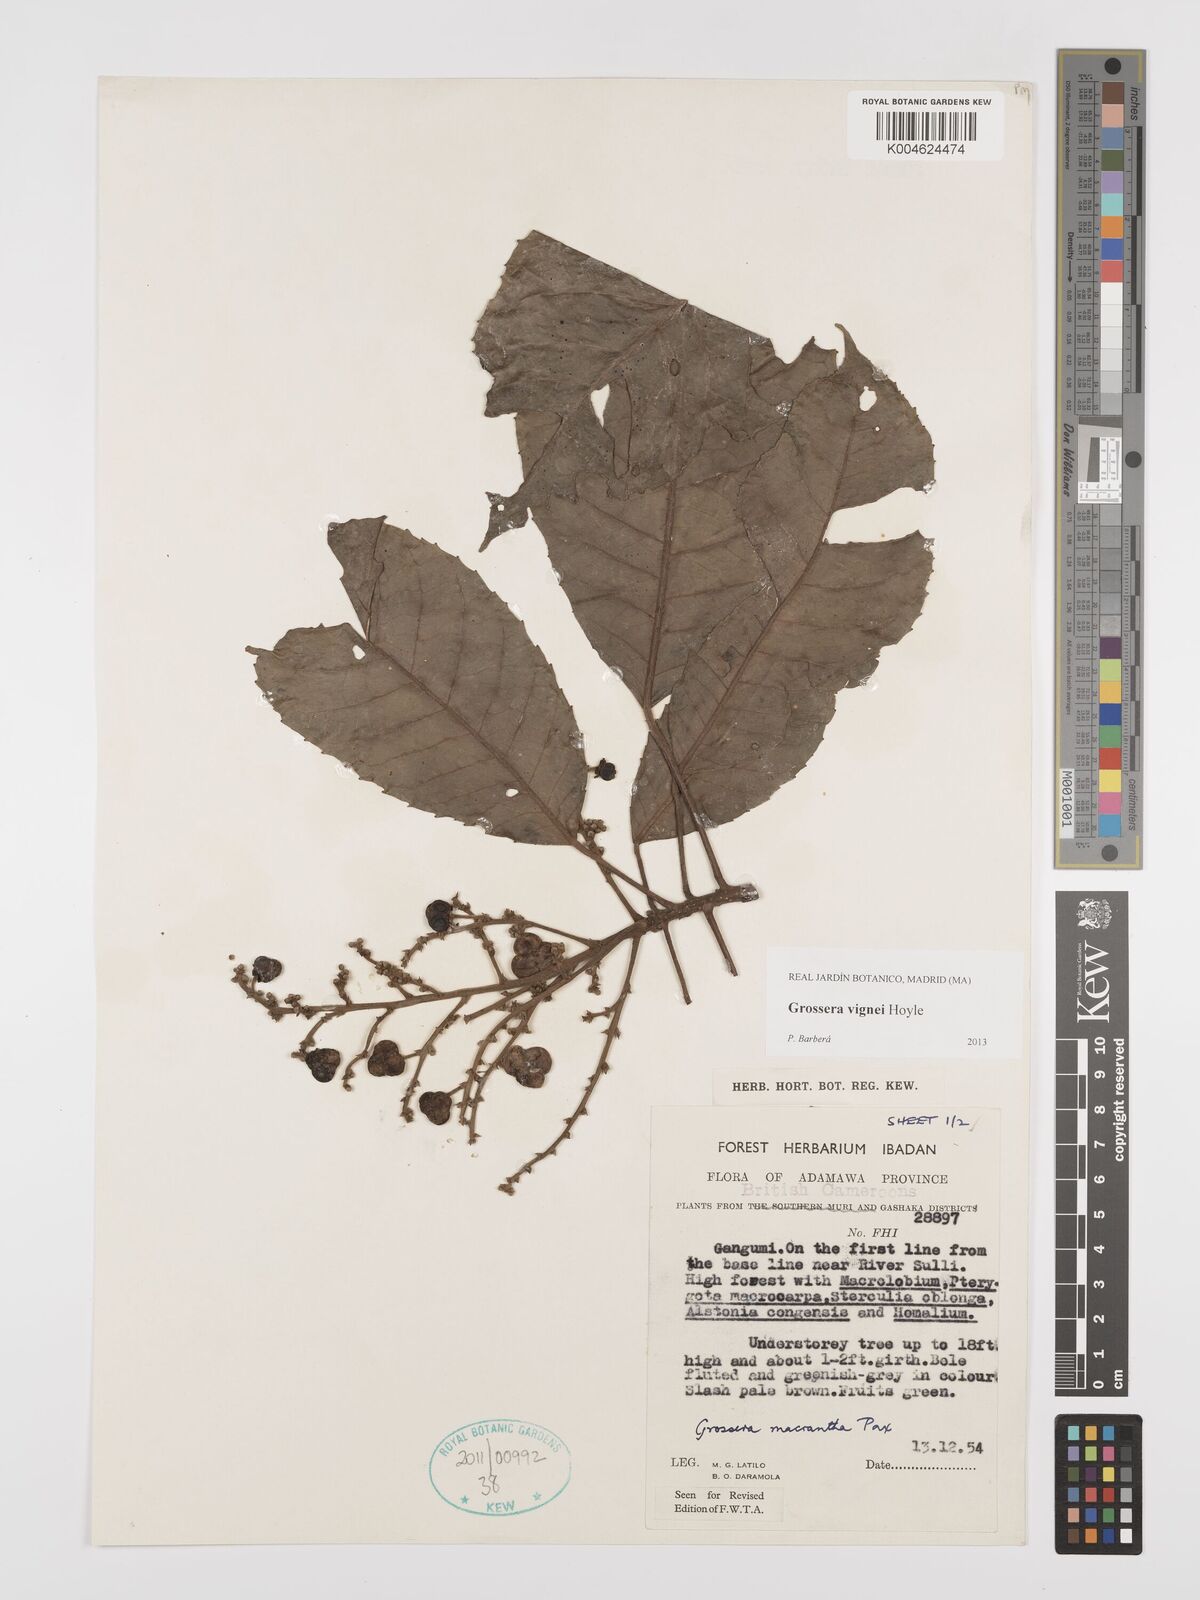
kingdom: Plantae
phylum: Tracheophyta
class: Magnoliopsida
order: Malpighiales
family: Euphorbiaceae
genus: Grossera
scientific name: Grossera vignei
